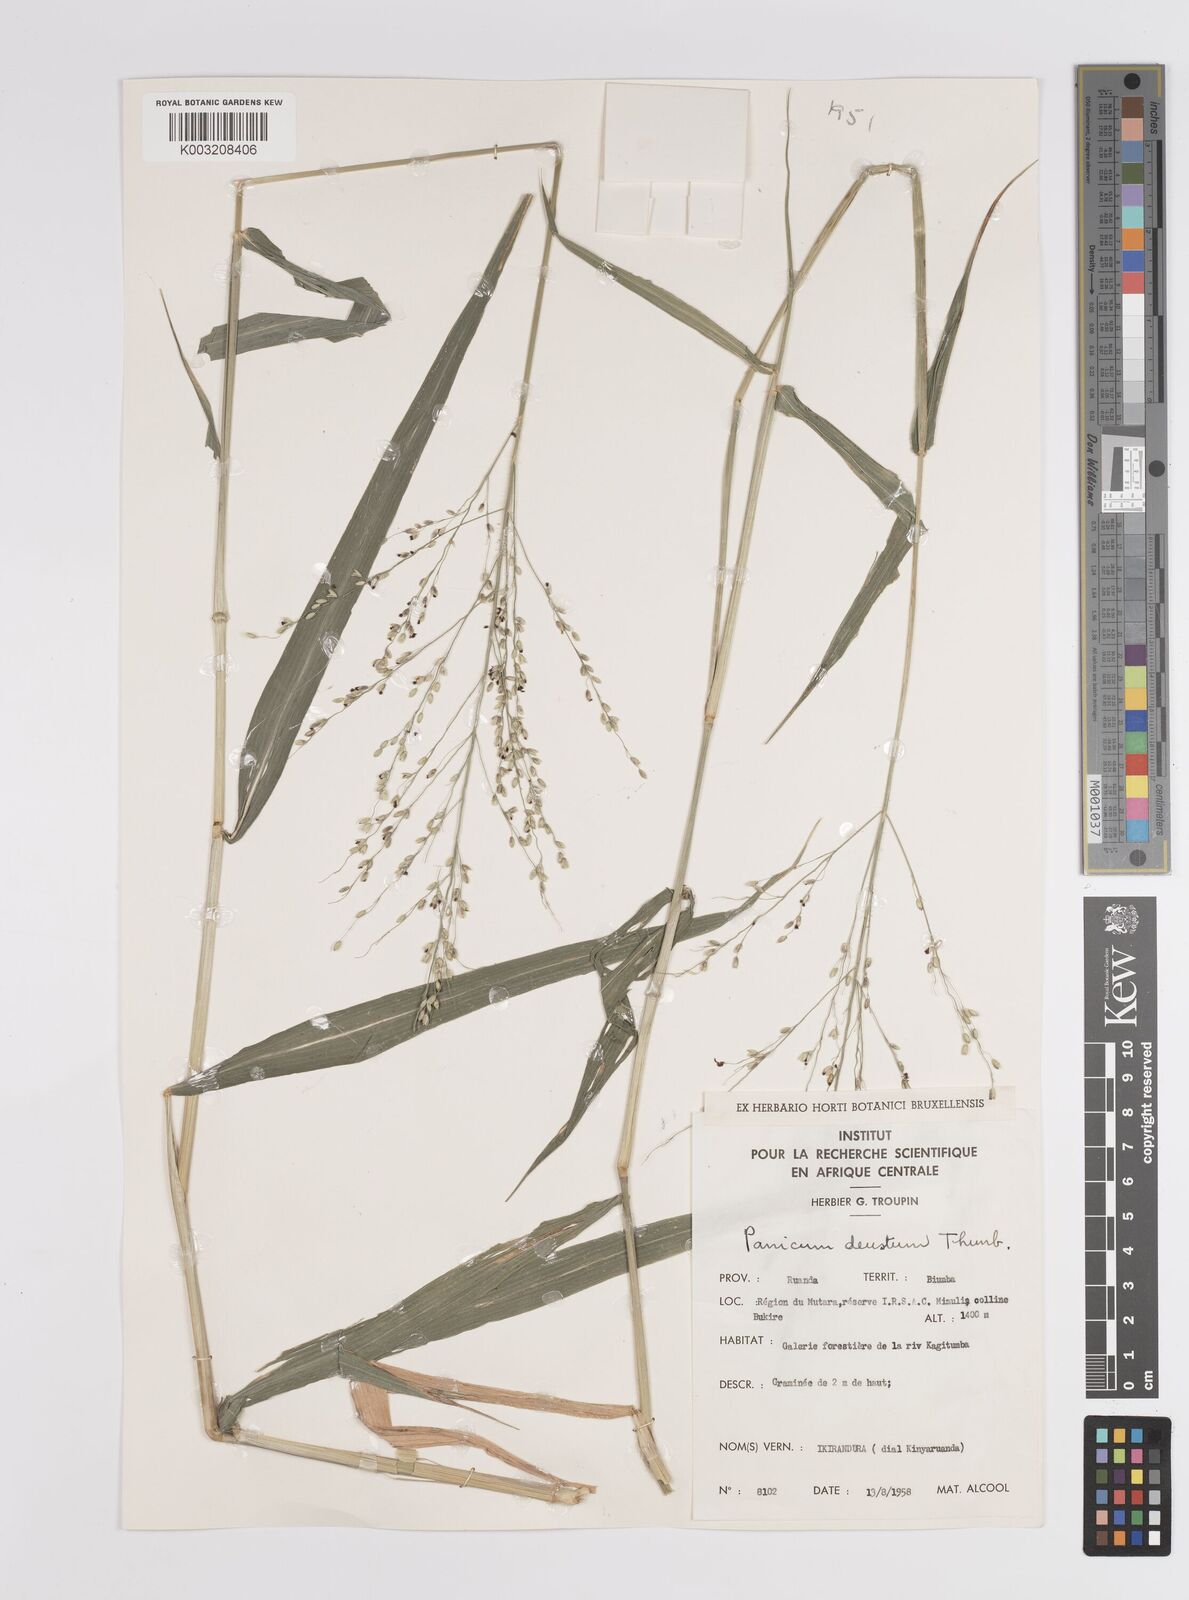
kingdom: Plantae
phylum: Tracheophyta
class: Liliopsida
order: Poales
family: Poaceae
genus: Panicum
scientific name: Panicum deustum
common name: Reed panicum
